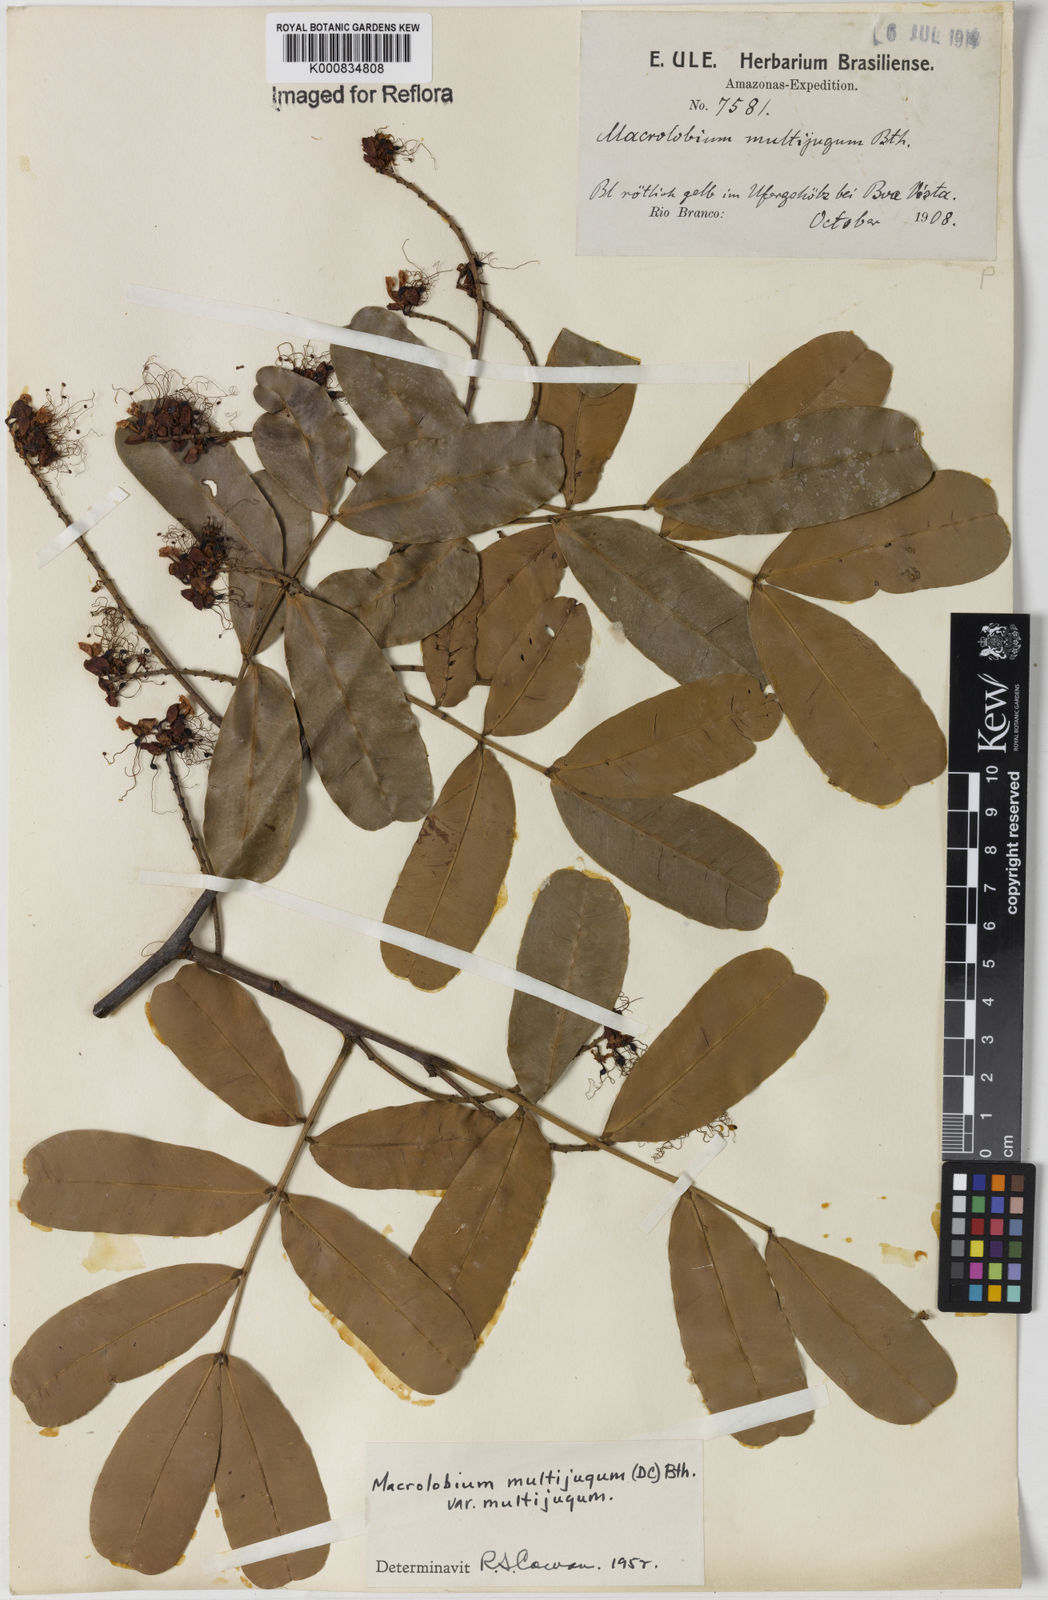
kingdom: Plantae
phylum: Tracheophyta
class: Magnoliopsida
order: Fabales
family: Fabaceae
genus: Macrolobium
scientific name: Macrolobium multijugum
